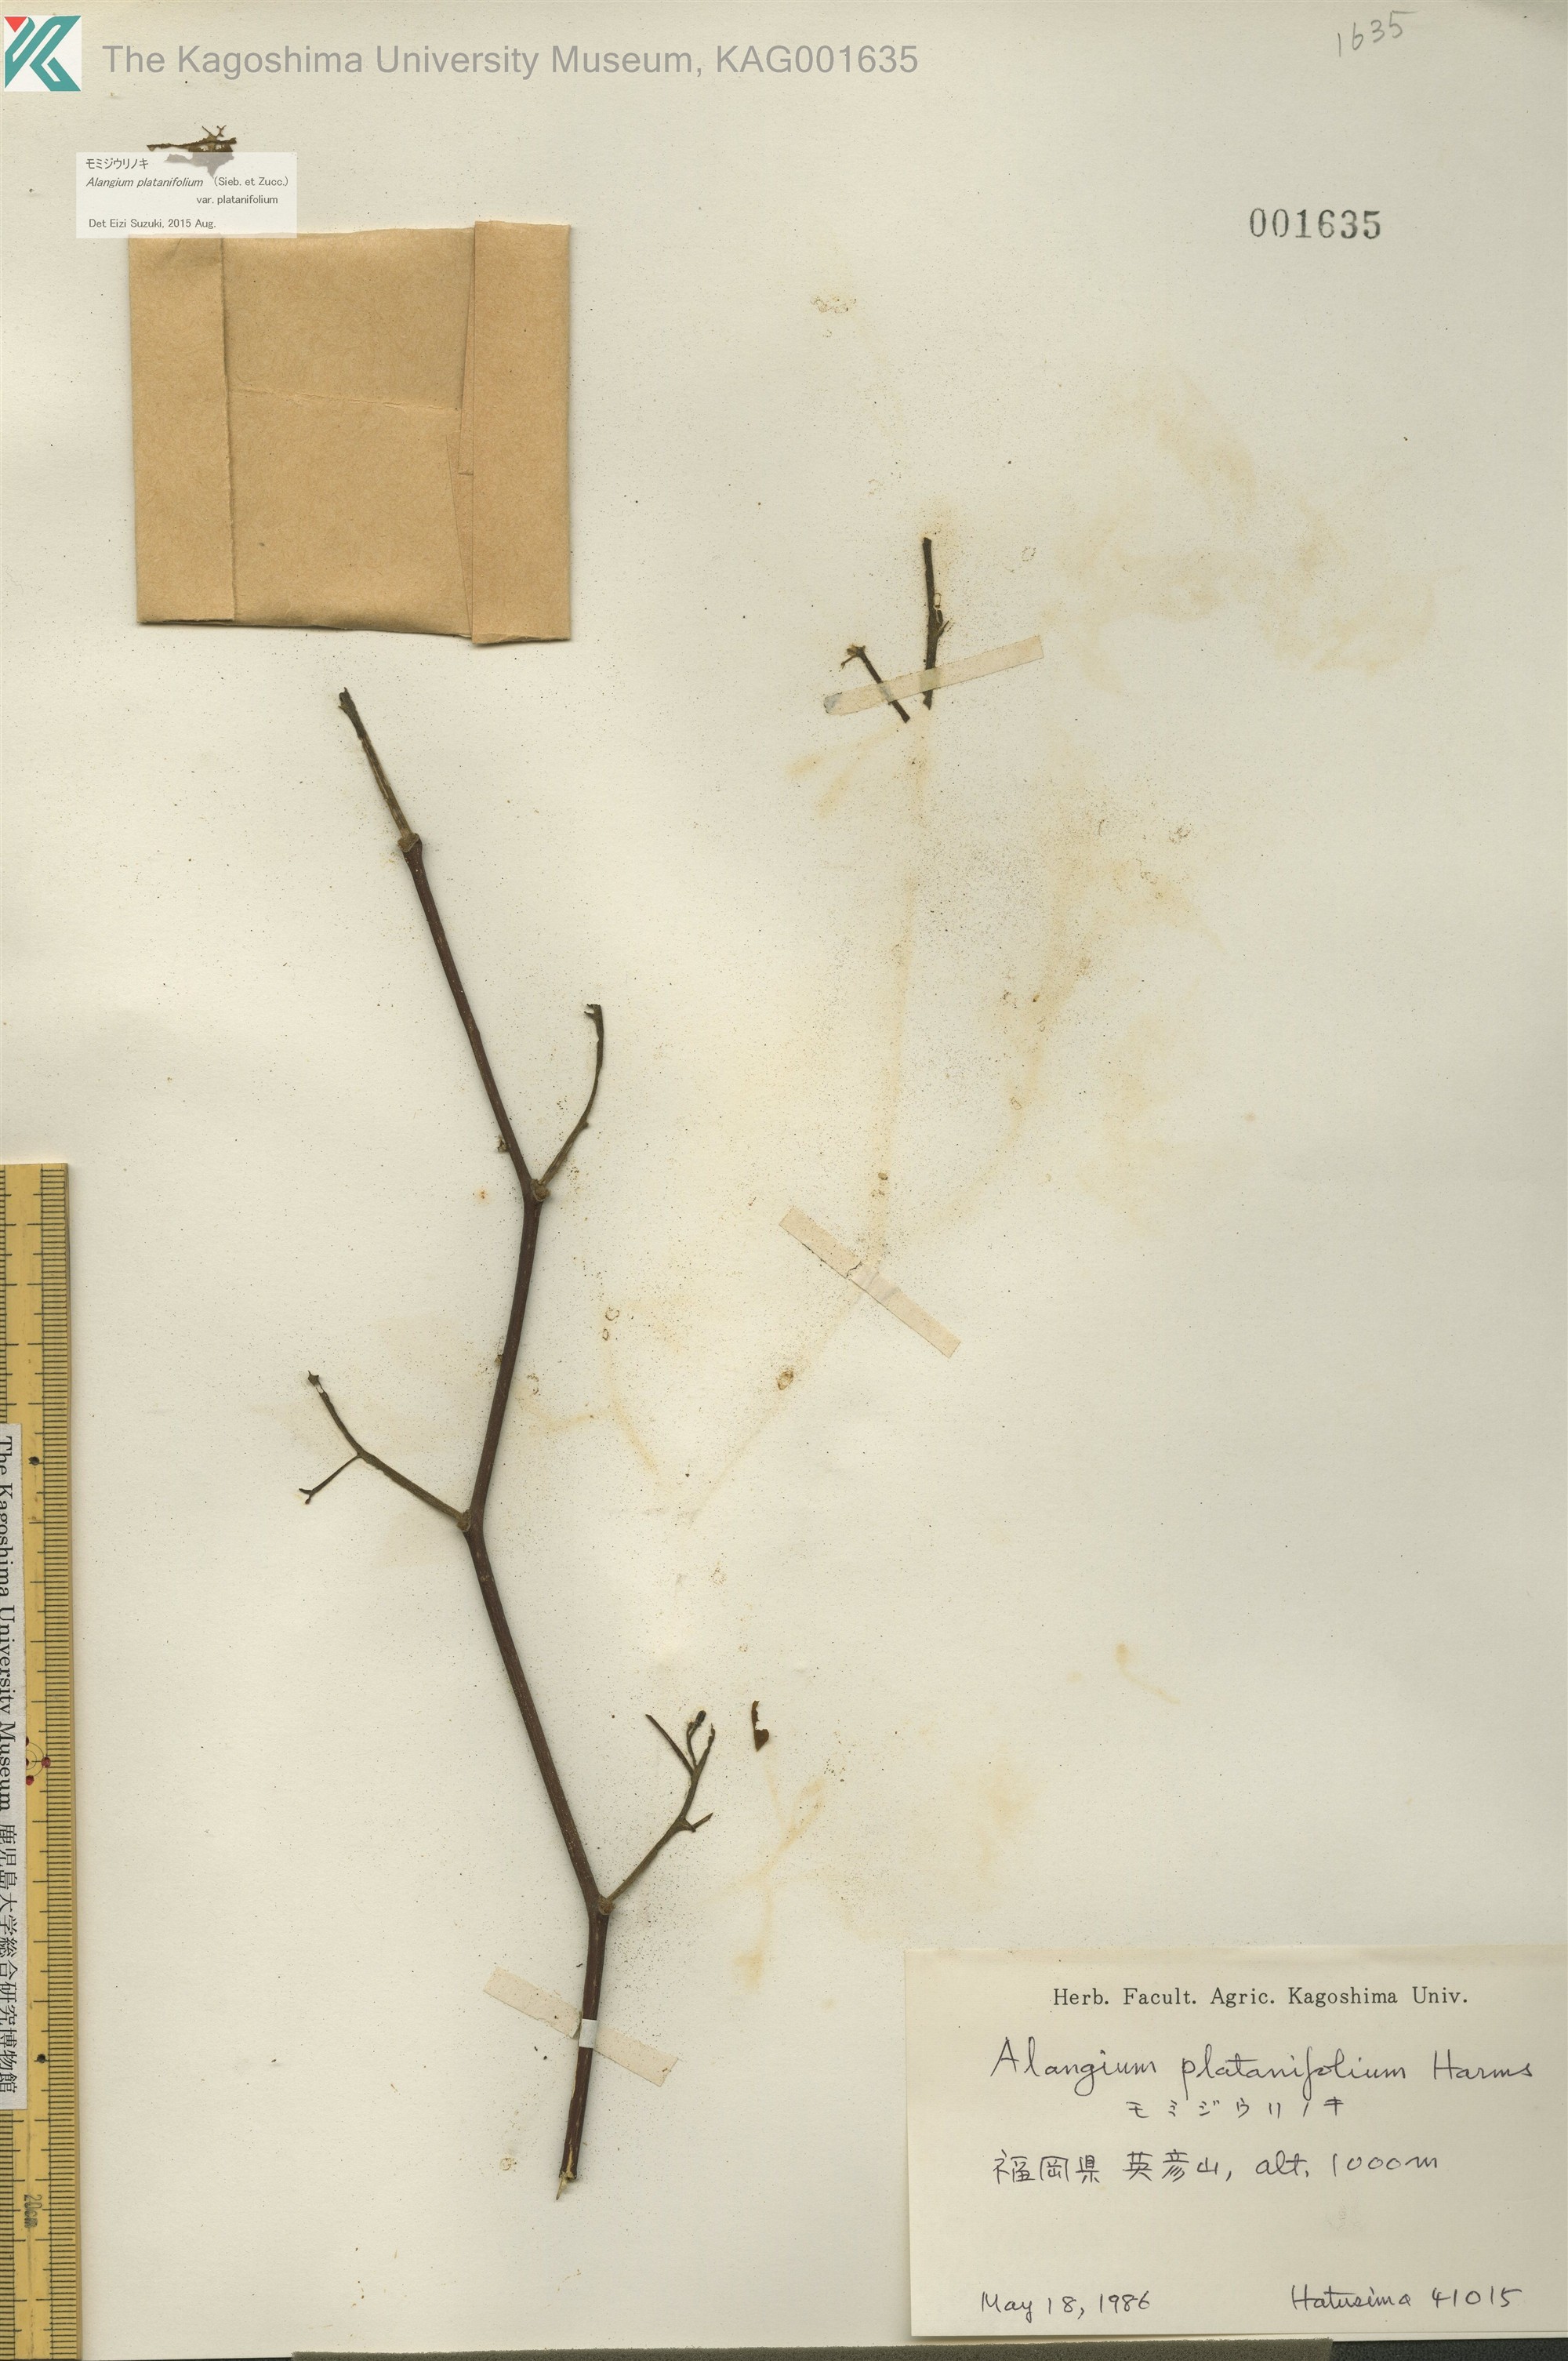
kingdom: Plantae
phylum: Tracheophyta
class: Magnoliopsida
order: Cornales
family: Cornaceae
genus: Alangium
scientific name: Alangium platanifolium
